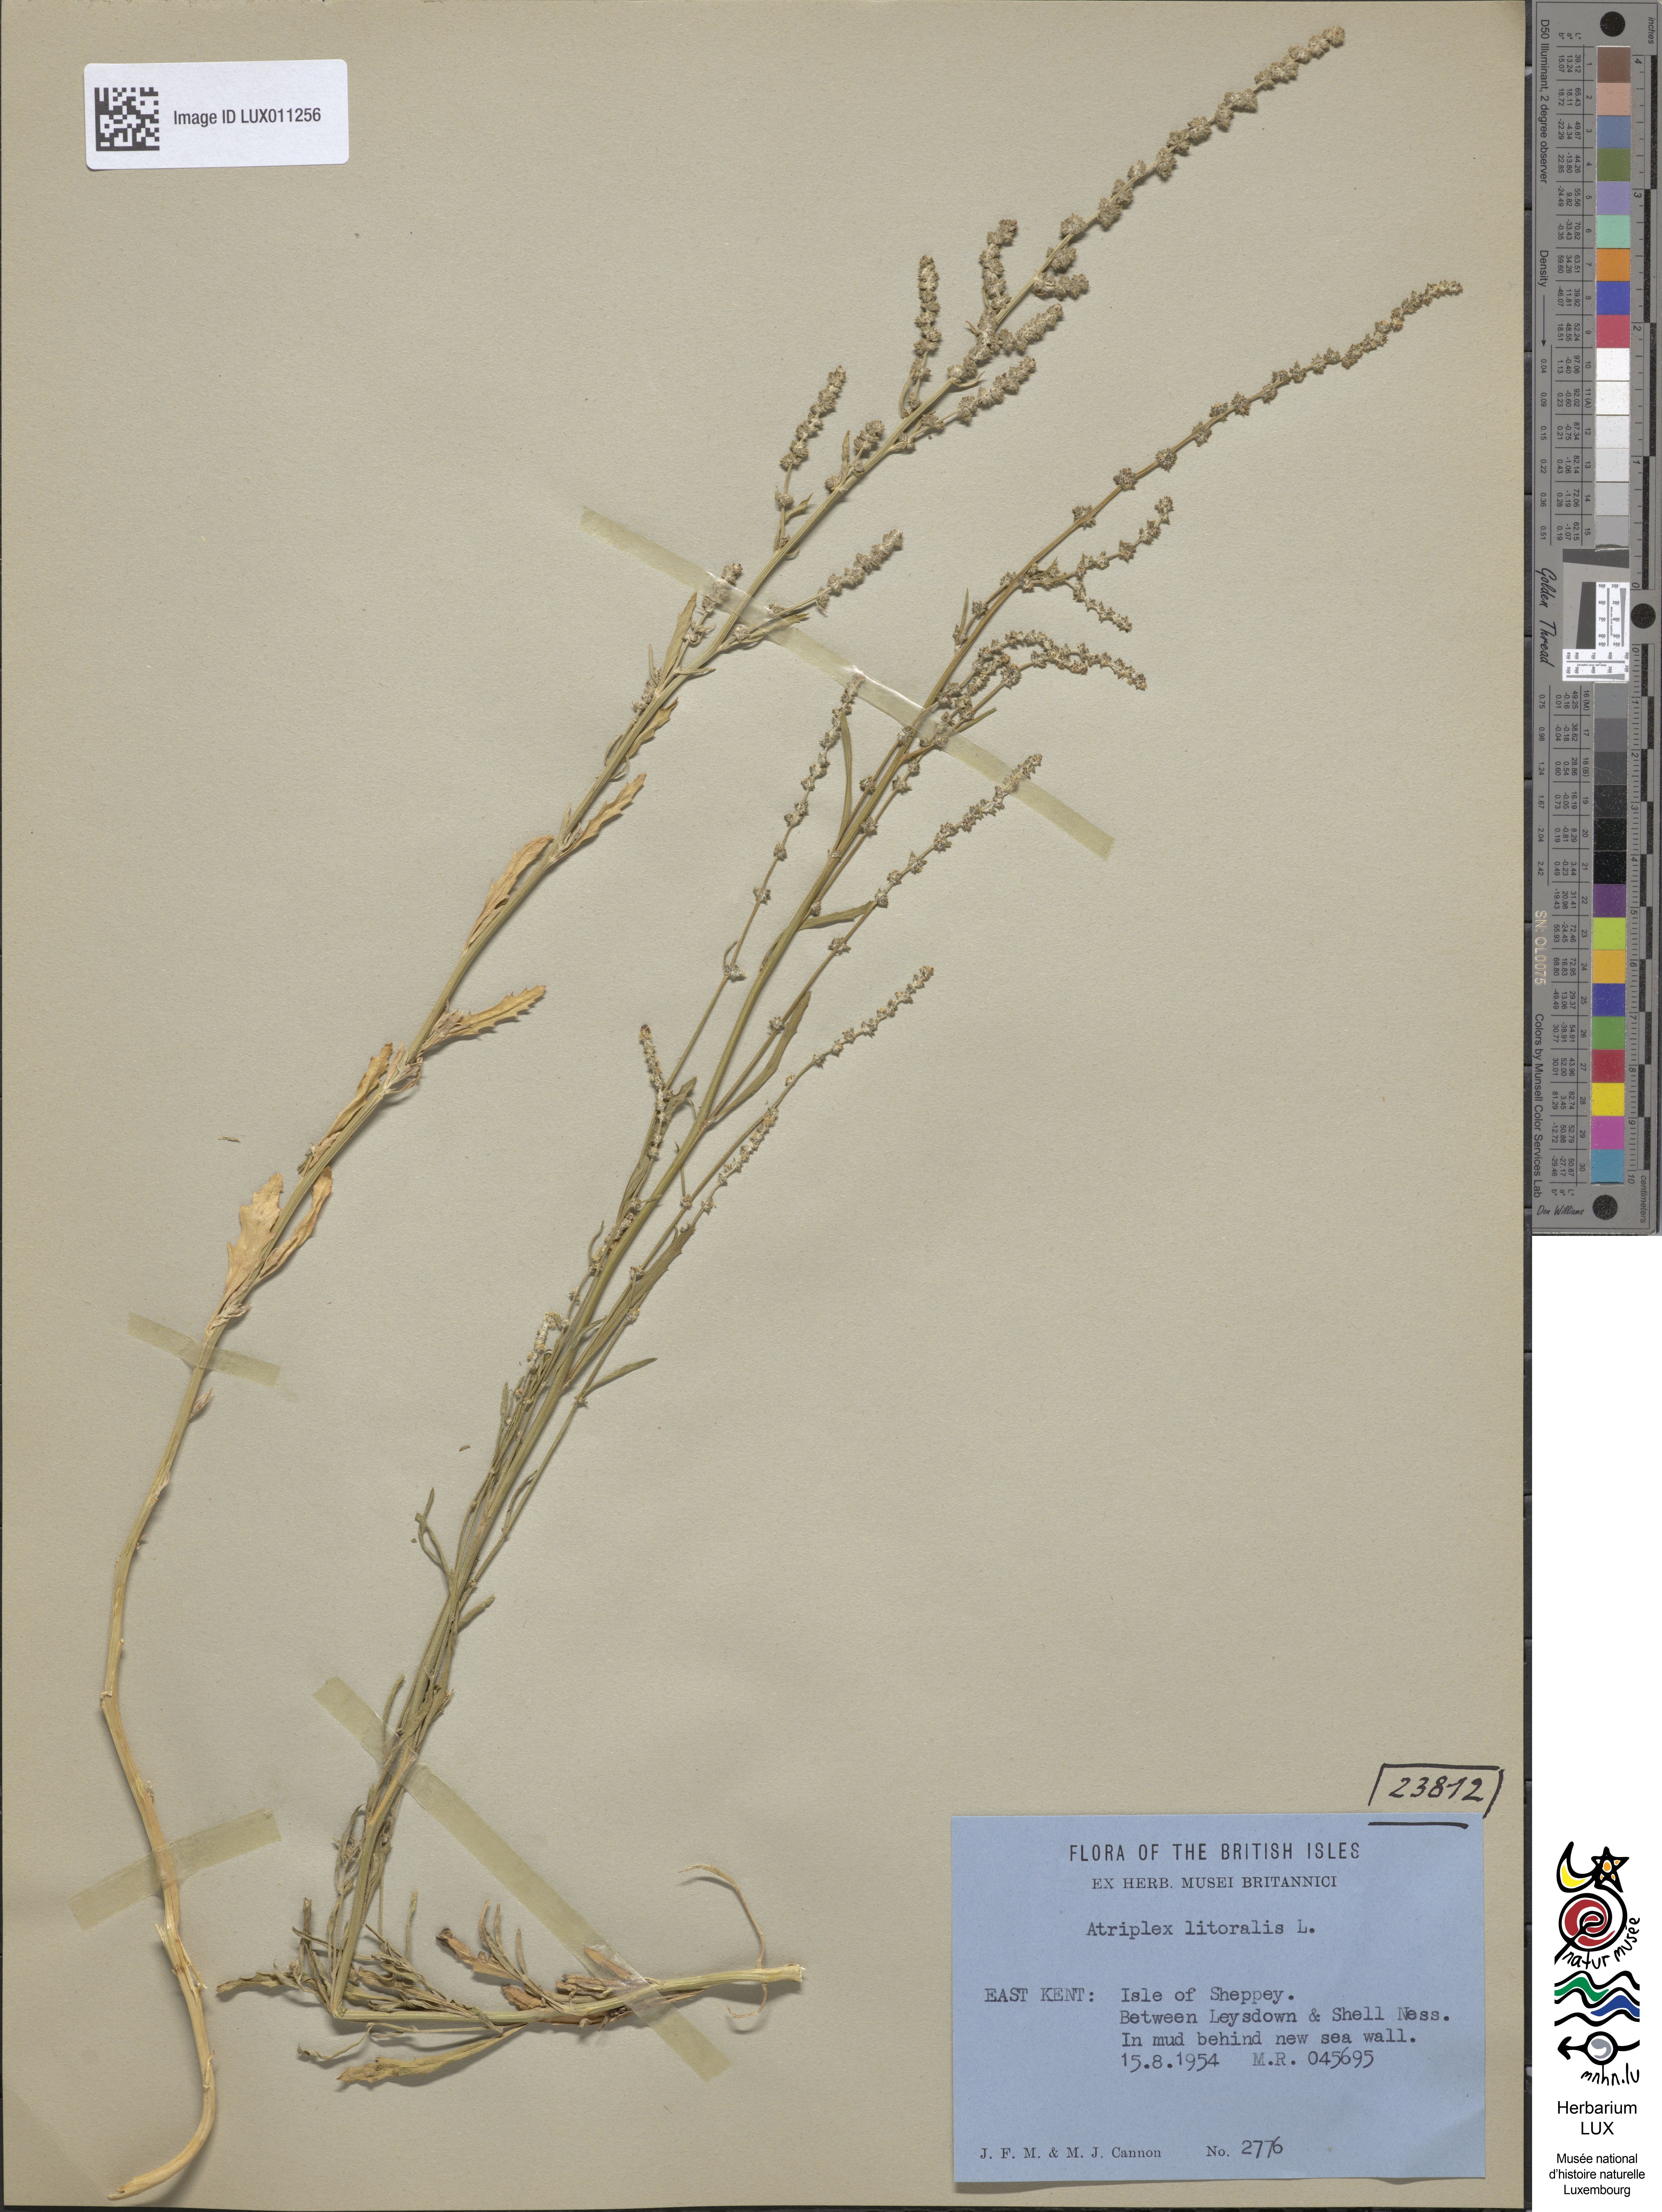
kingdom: Plantae
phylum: Tracheophyta
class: Magnoliopsida
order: Caryophyllales
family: Amaranthaceae
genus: Atriplex
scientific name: Atriplex littoralis
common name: Grass-leaved orache
